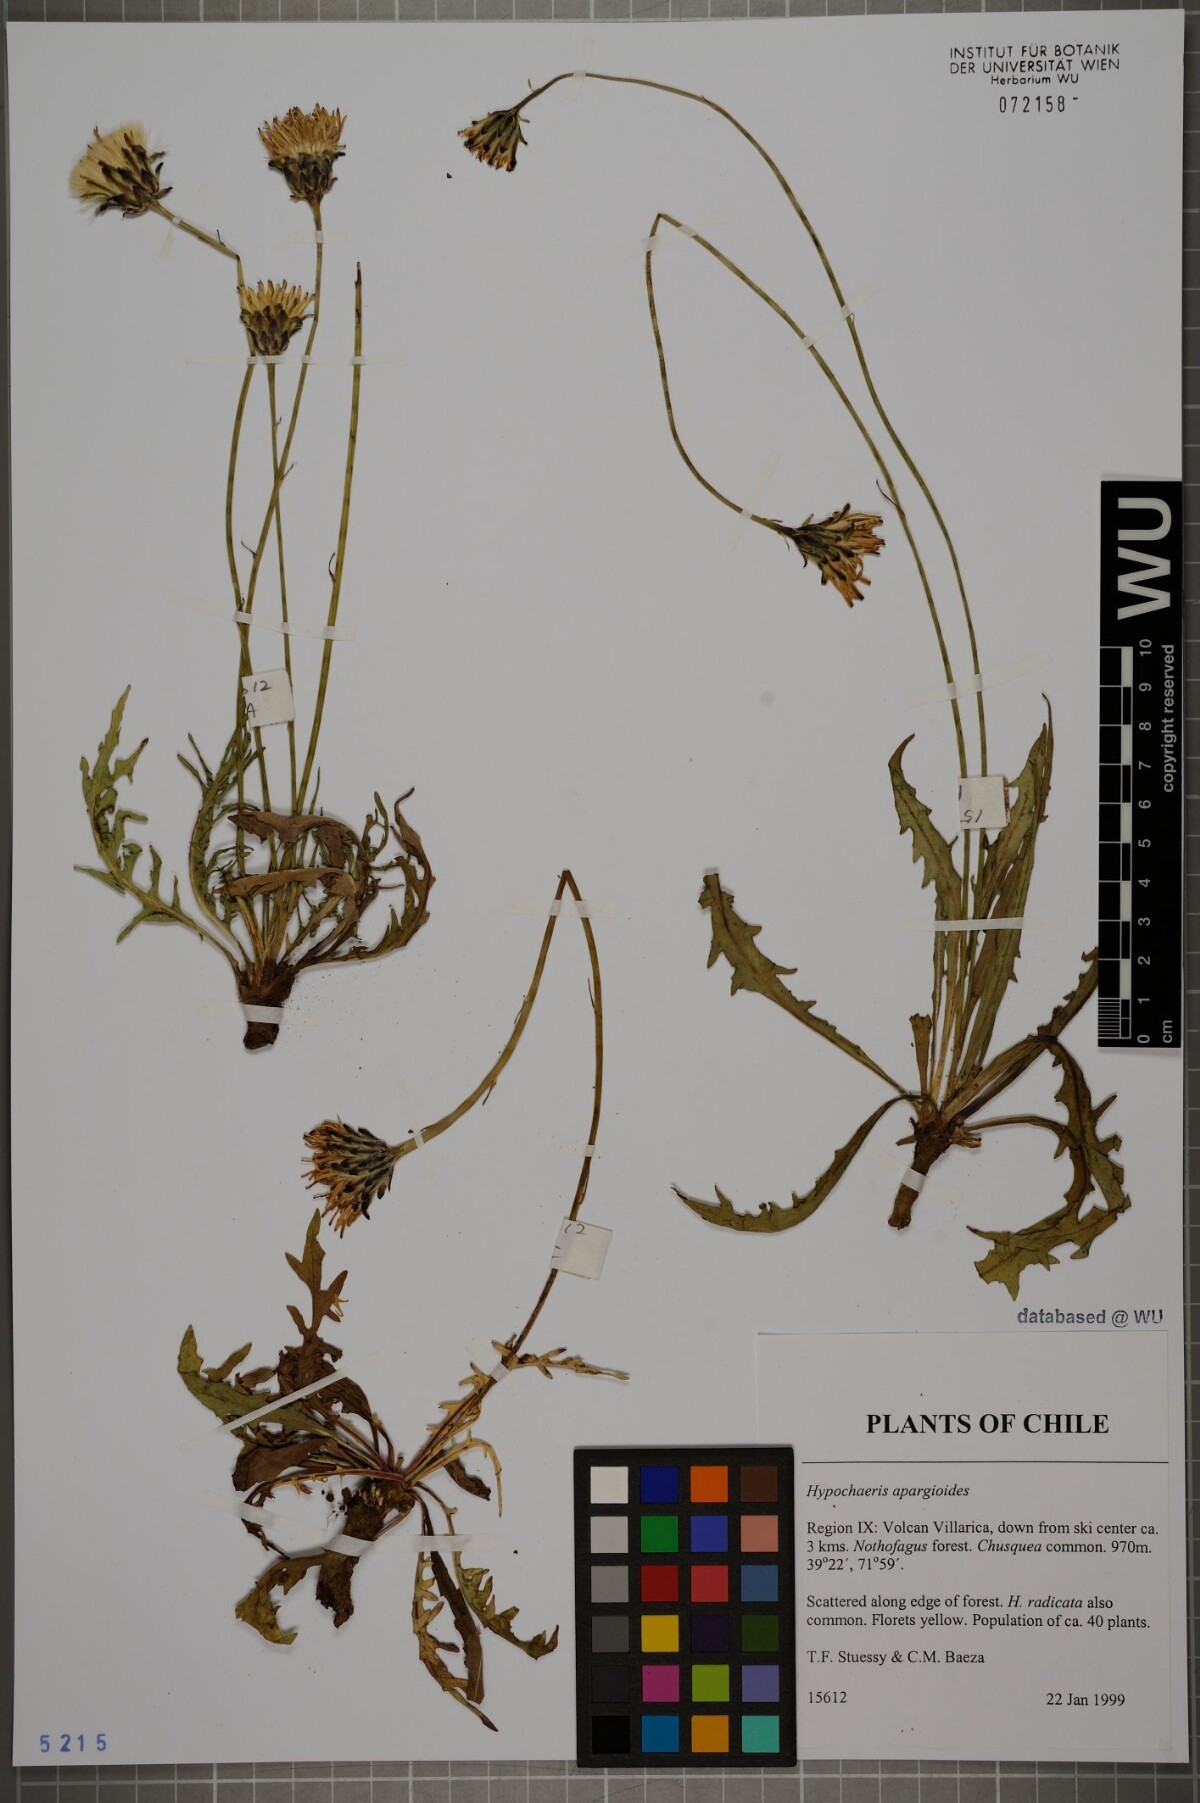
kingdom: Plantae
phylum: Tracheophyta
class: Magnoliopsida
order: Asterales
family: Asteraceae
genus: Hypochaeris
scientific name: Hypochaeris apargioides
